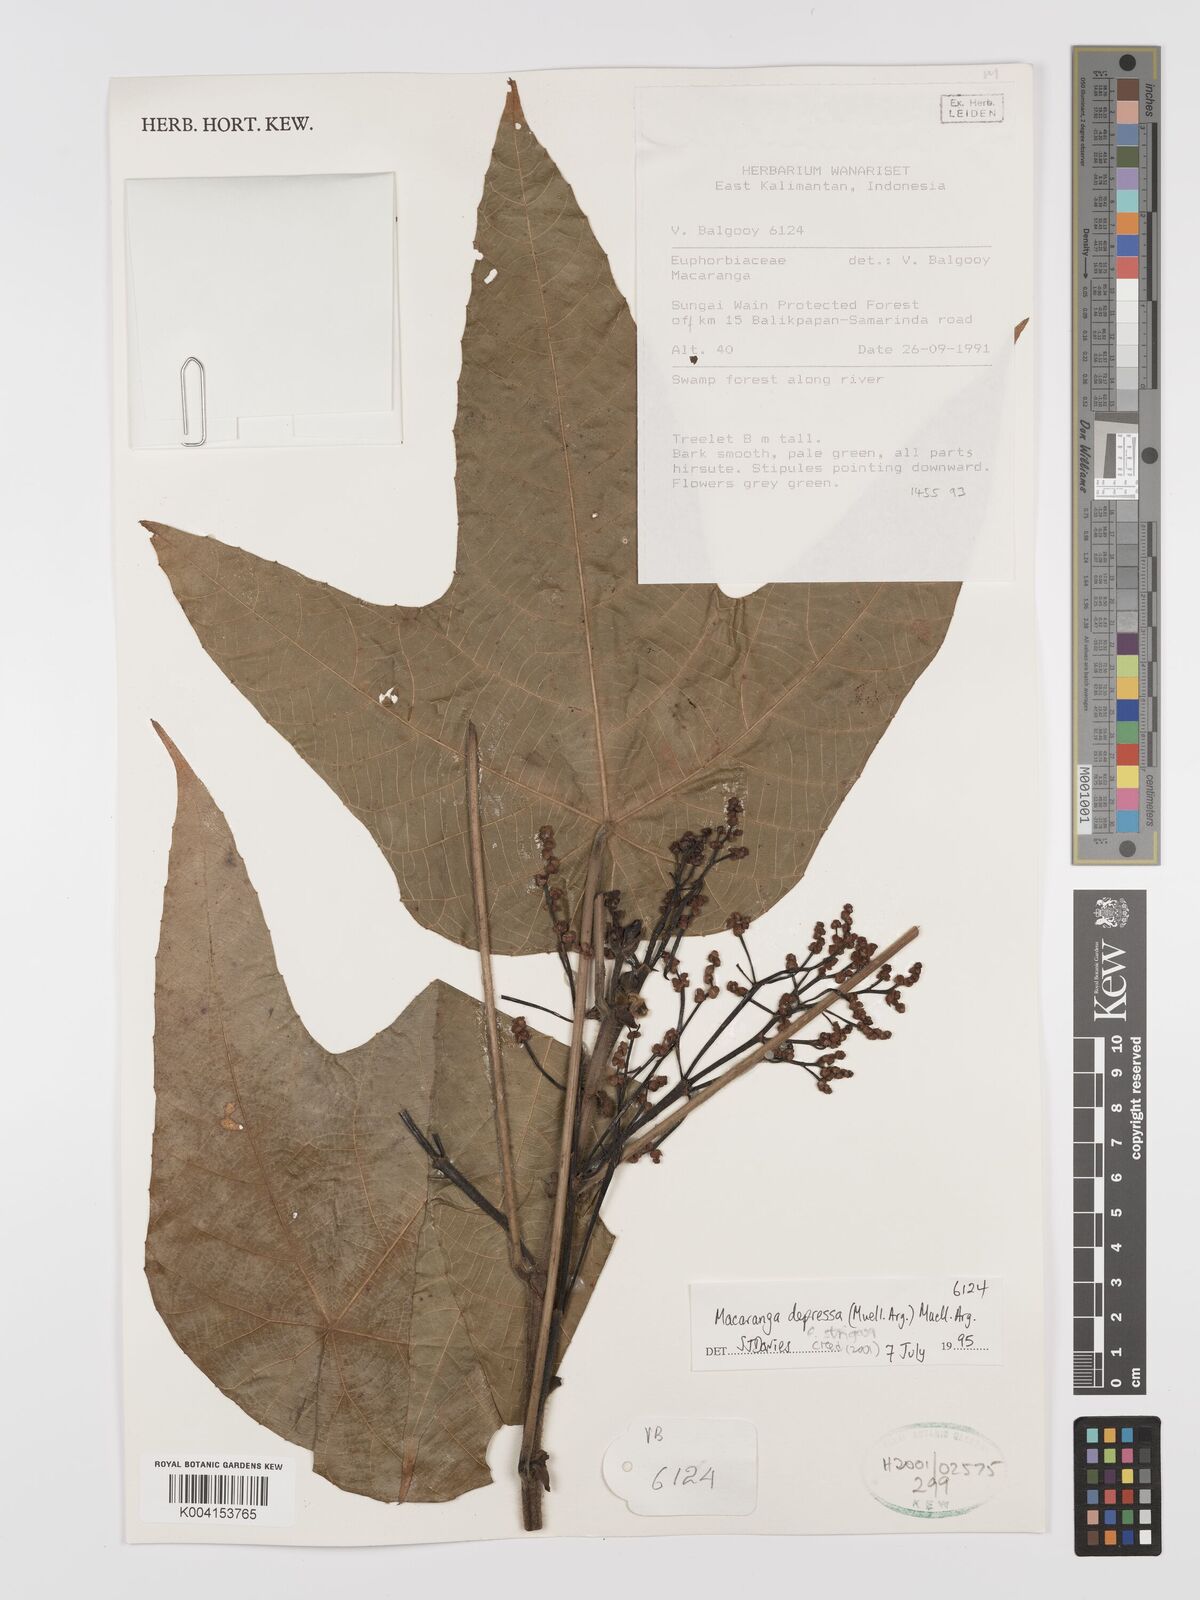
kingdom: Plantae
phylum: Tracheophyta
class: Magnoliopsida
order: Malpighiales
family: Euphorbiaceae
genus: Macaranga
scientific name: Macaranga depressa
